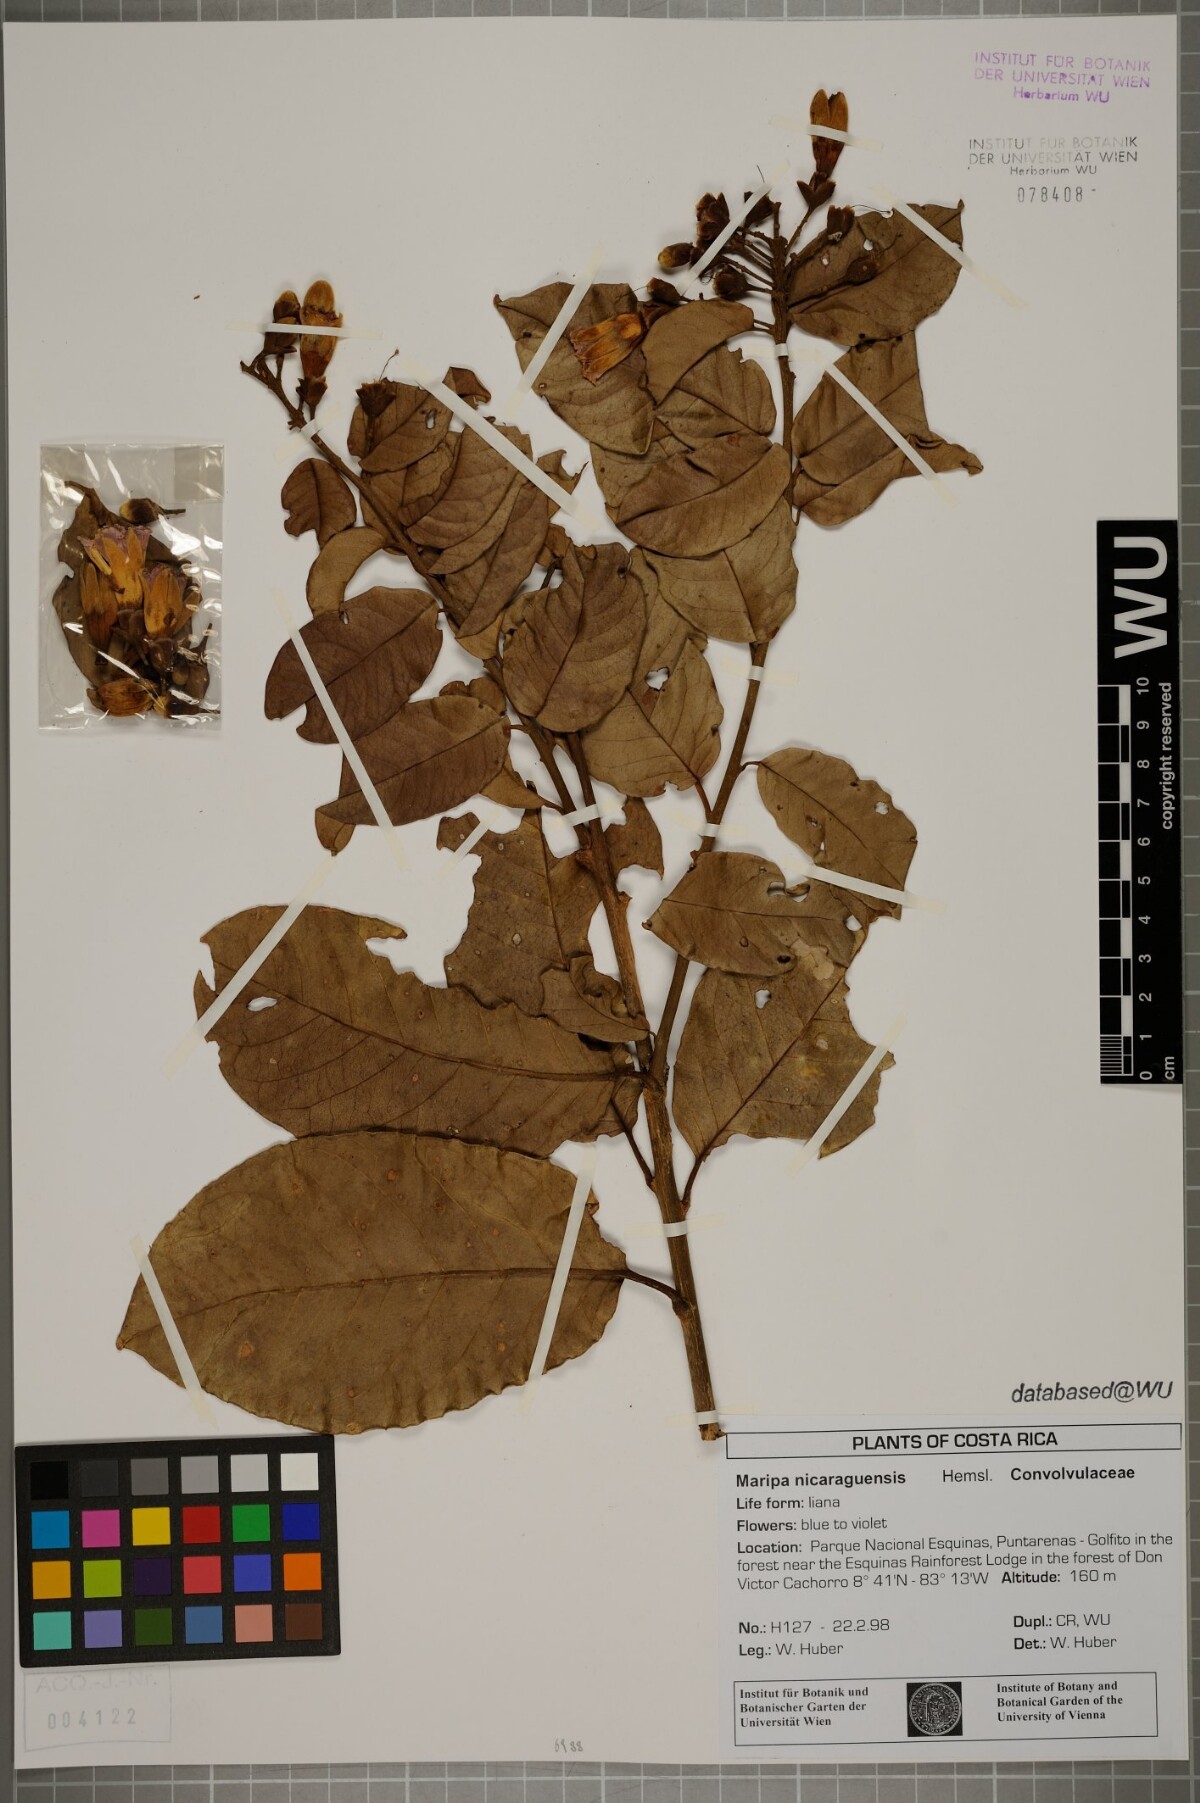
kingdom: Plantae
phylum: Tracheophyta
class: Magnoliopsida
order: Solanales
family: Convolvulaceae
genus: Maripa
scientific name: Maripa nicaraguensis
